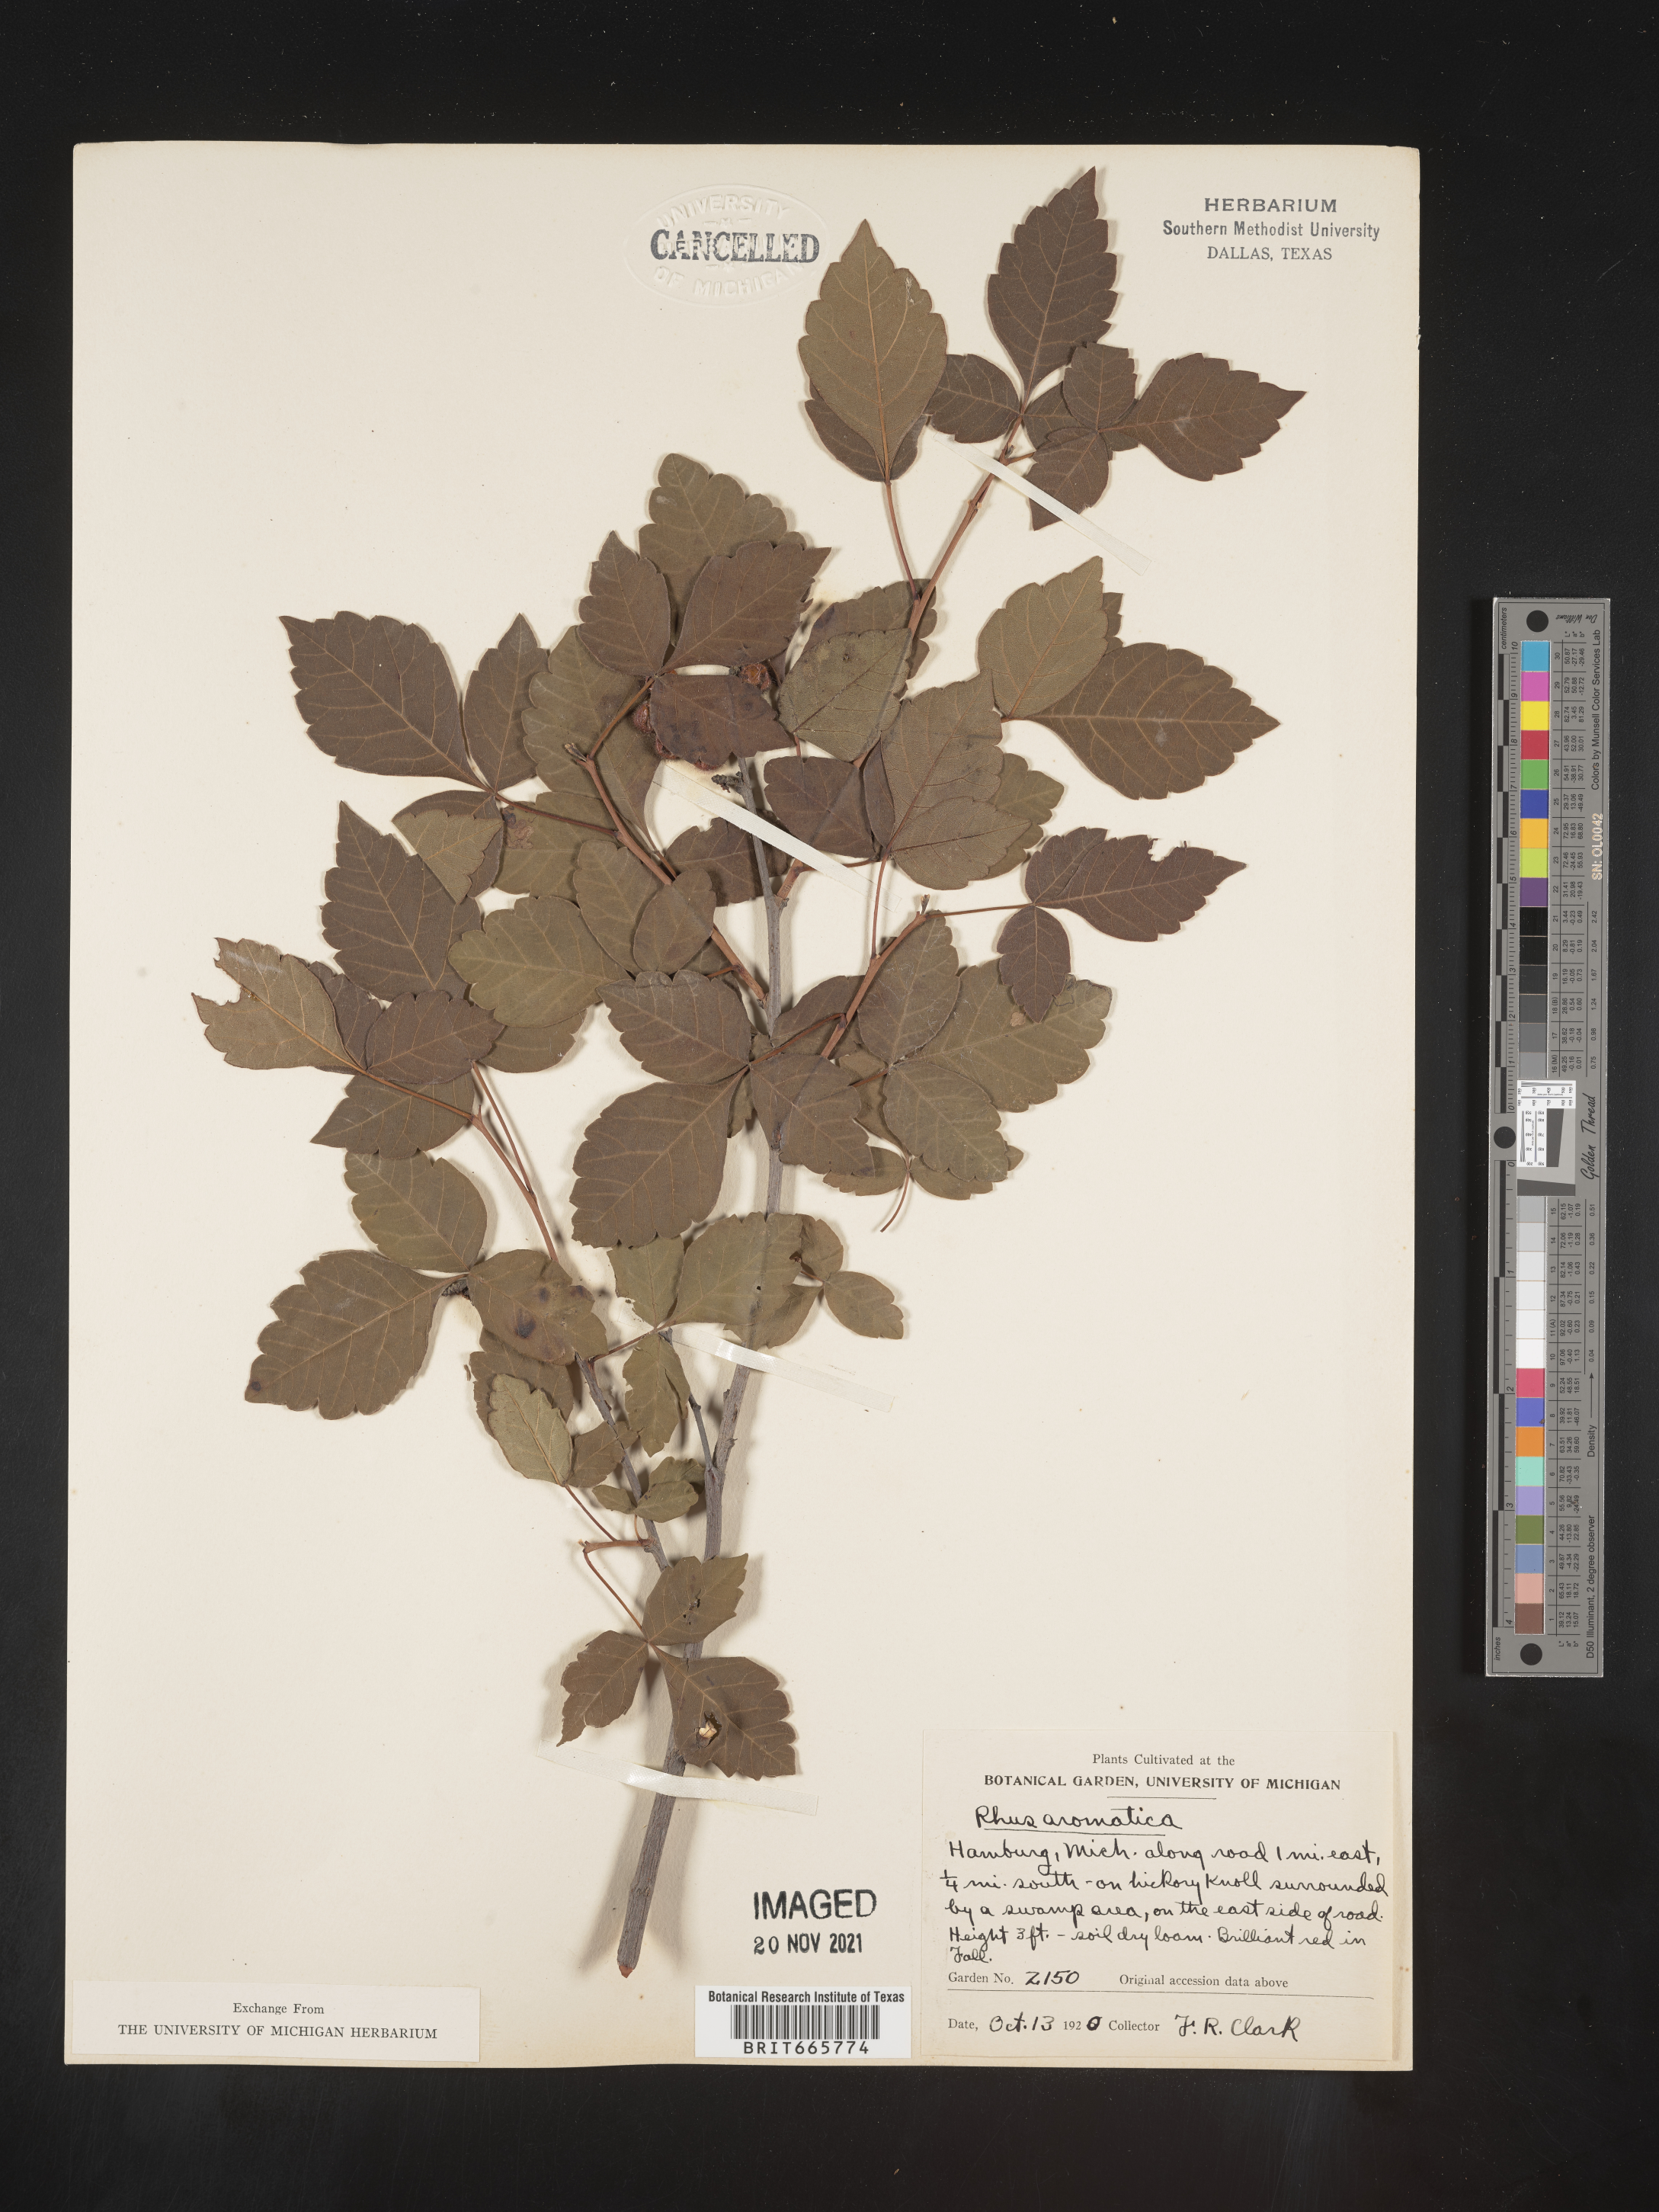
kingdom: Plantae
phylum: Tracheophyta
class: Magnoliopsida
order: Sapindales
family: Anacardiaceae
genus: Rhus
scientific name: Rhus aromatica
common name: Aromatic sumac
